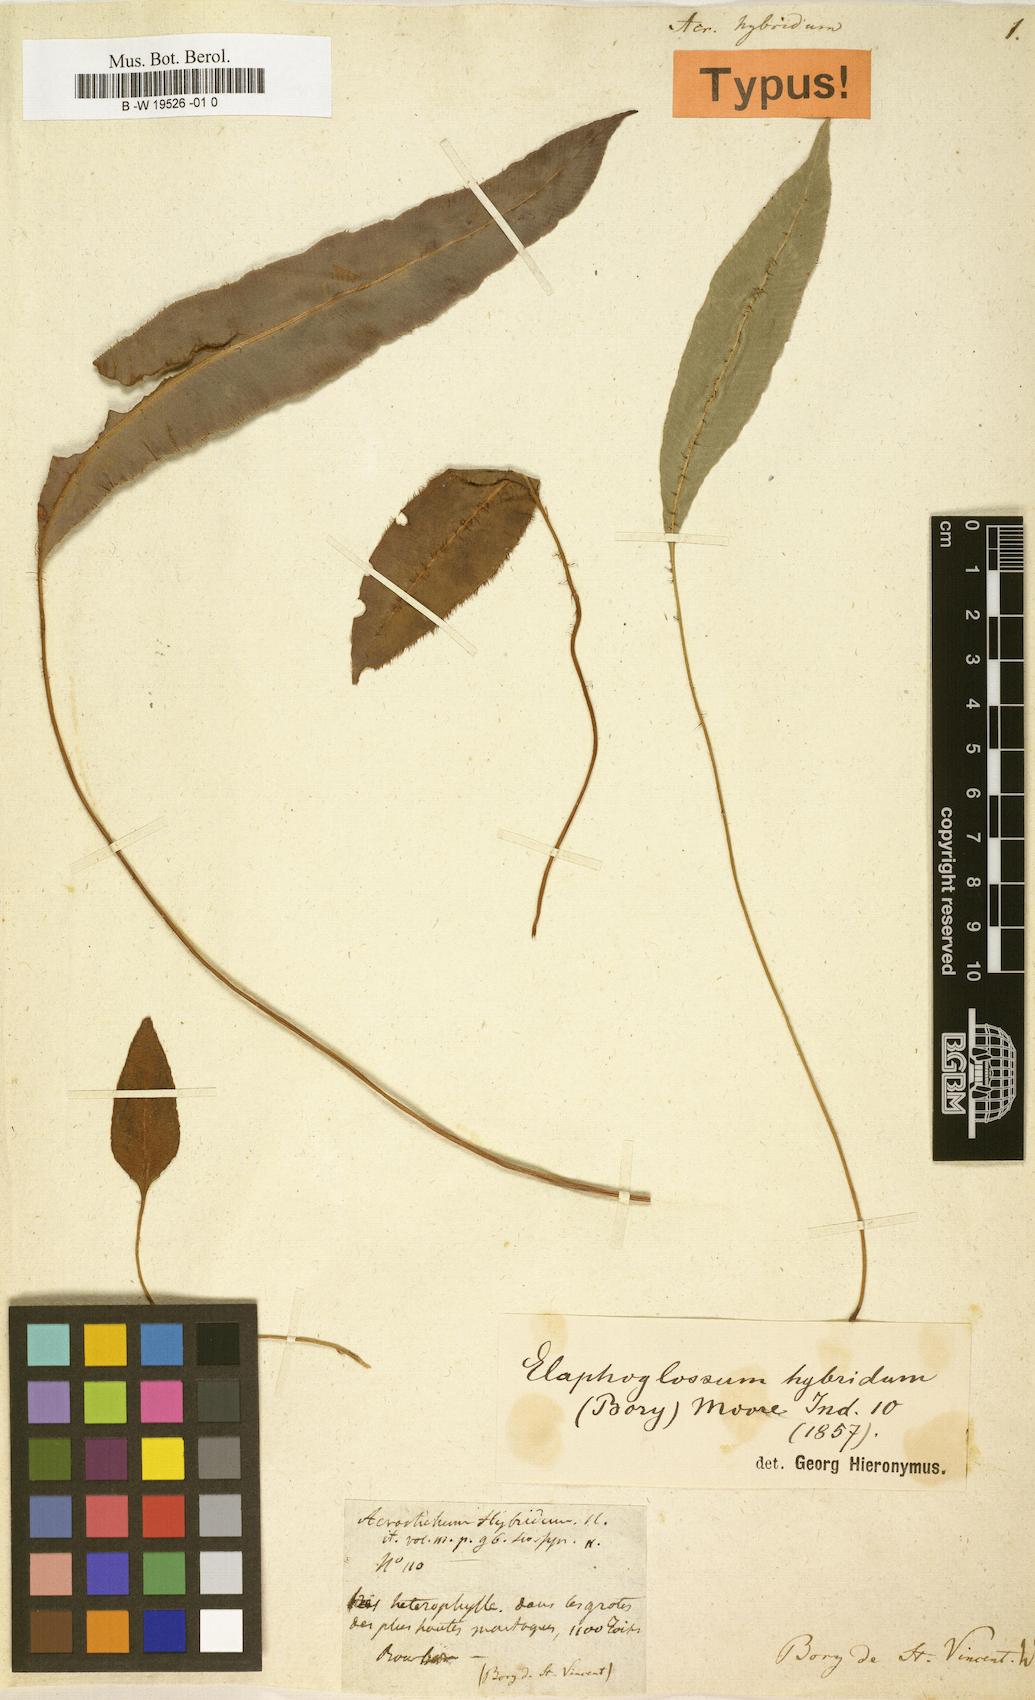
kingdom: Plantae
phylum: Tracheophyta
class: Polypodiopsida
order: Polypodiales
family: Dryopteridaceae
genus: Elaphoglossum
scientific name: Elaphoglossum hybridum
